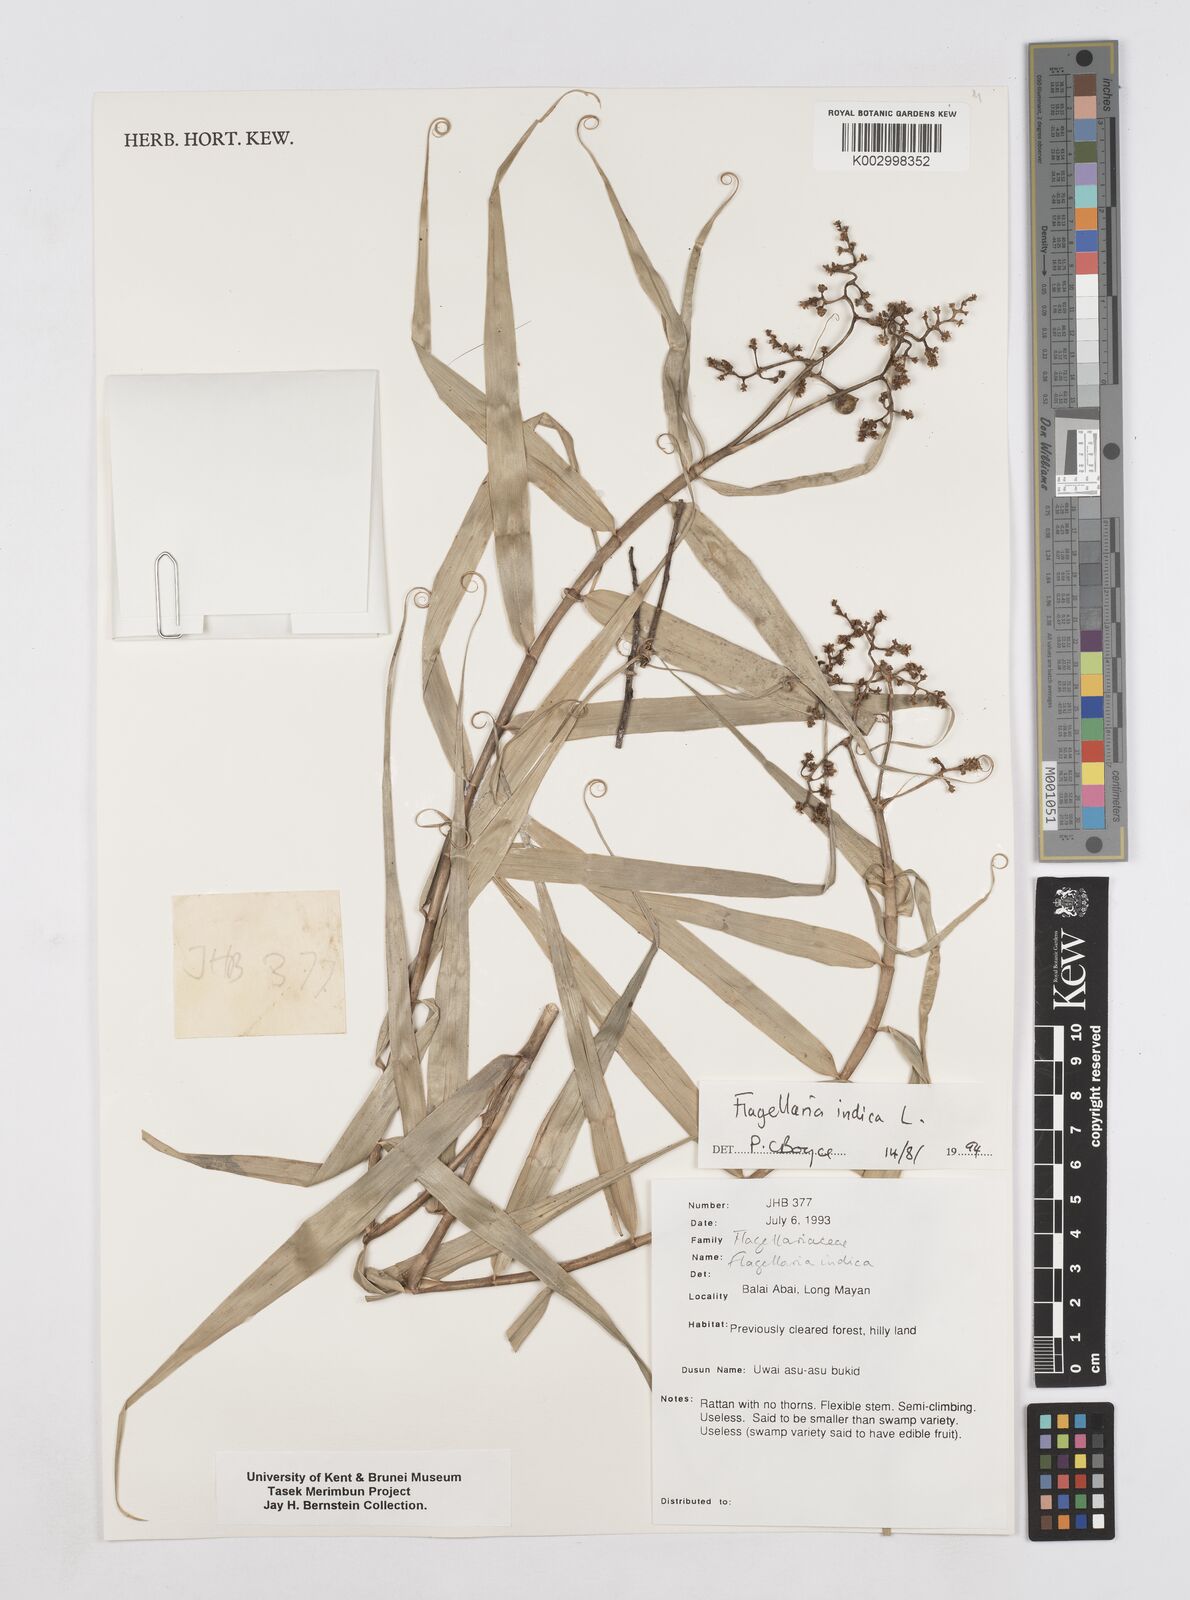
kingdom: Plantae
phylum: Tracheophyta
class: Liliopsida
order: Poales
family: Flagellariaceae
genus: Flagellaria
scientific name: Flagellaria indica
